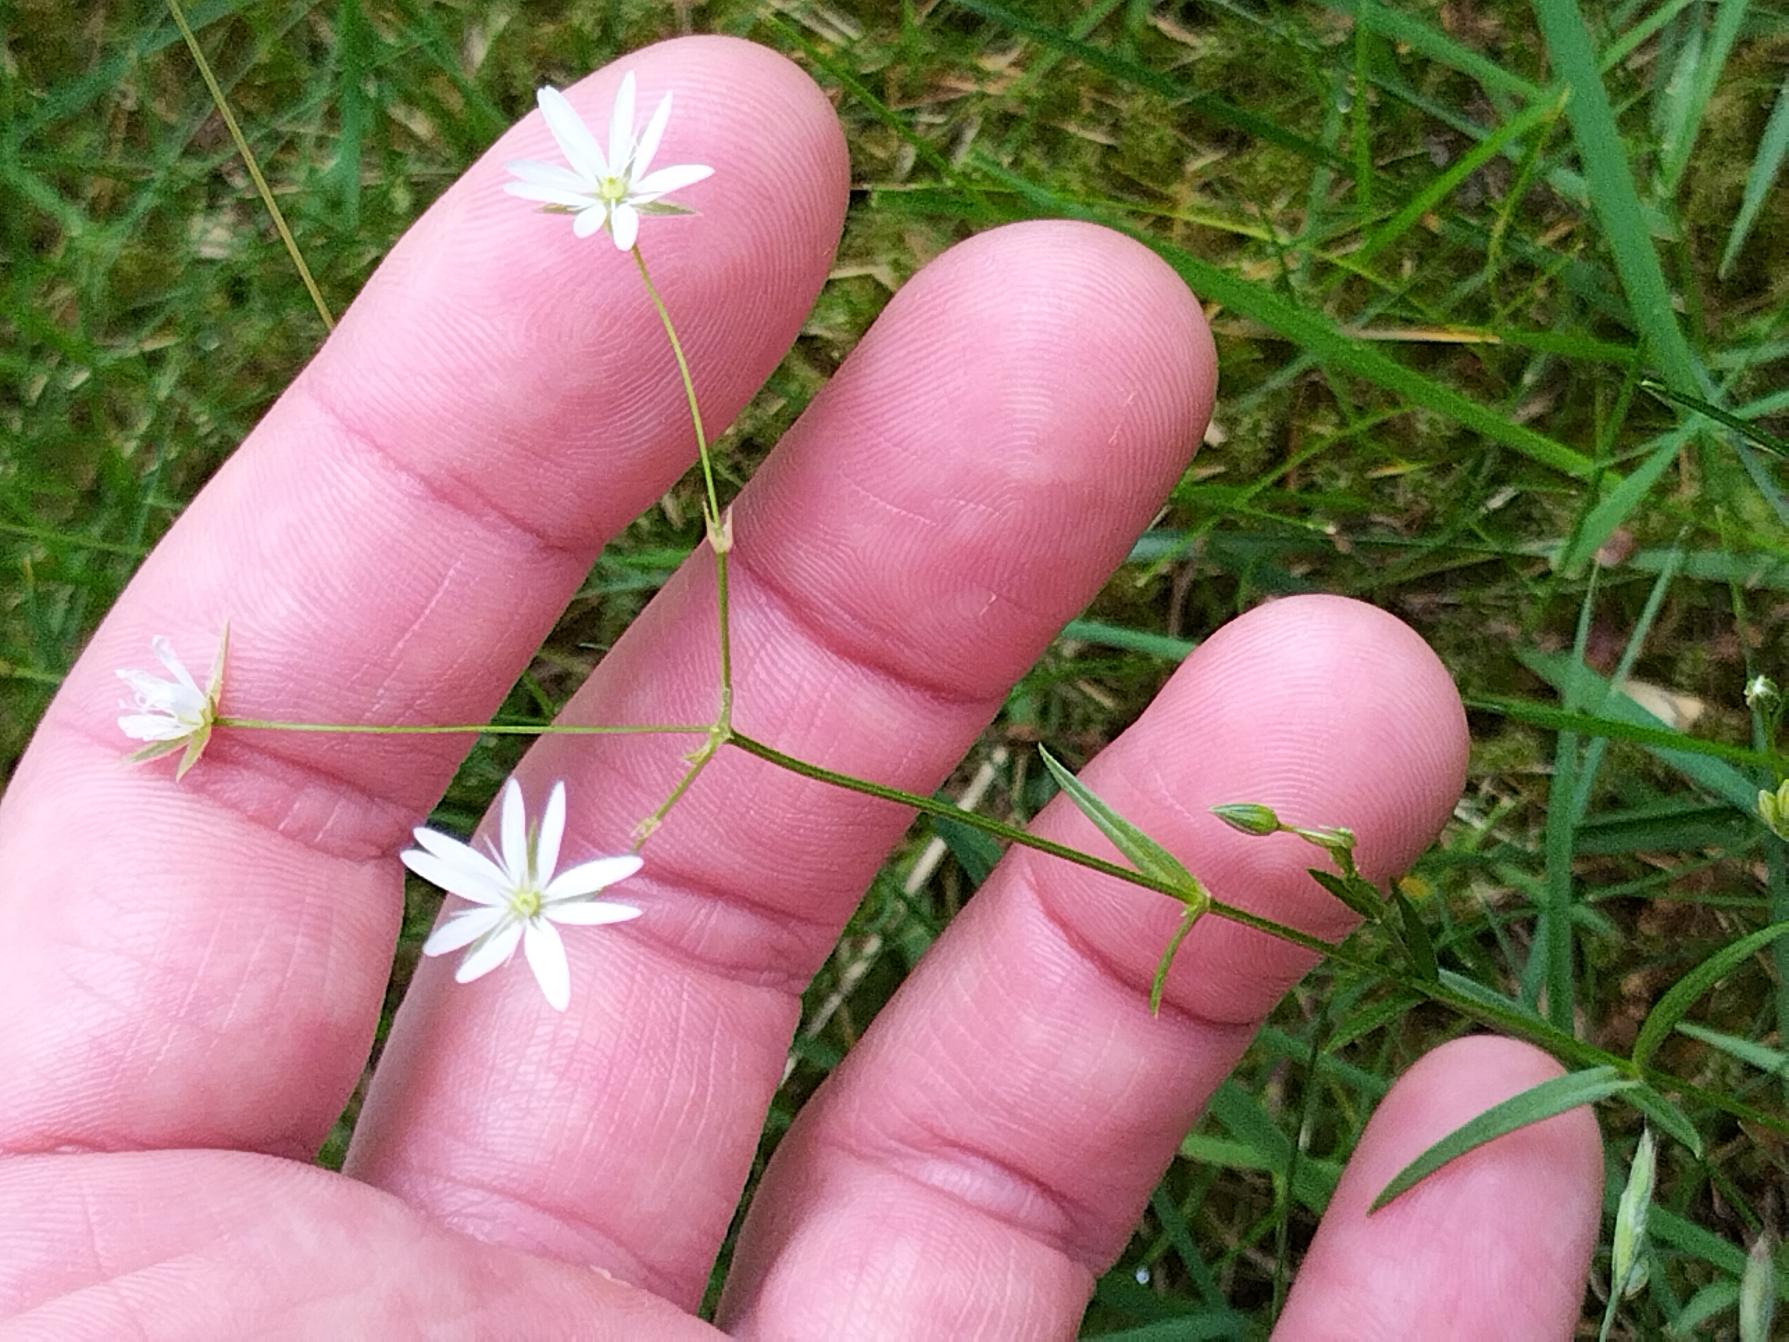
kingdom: Plantae
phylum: Tracheophyta
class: Magnoliopsida
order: Caryophyllales
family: Caryophyllaceae
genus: Stellaria
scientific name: Stellaria graminea
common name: Græsbladet fladstjerne
